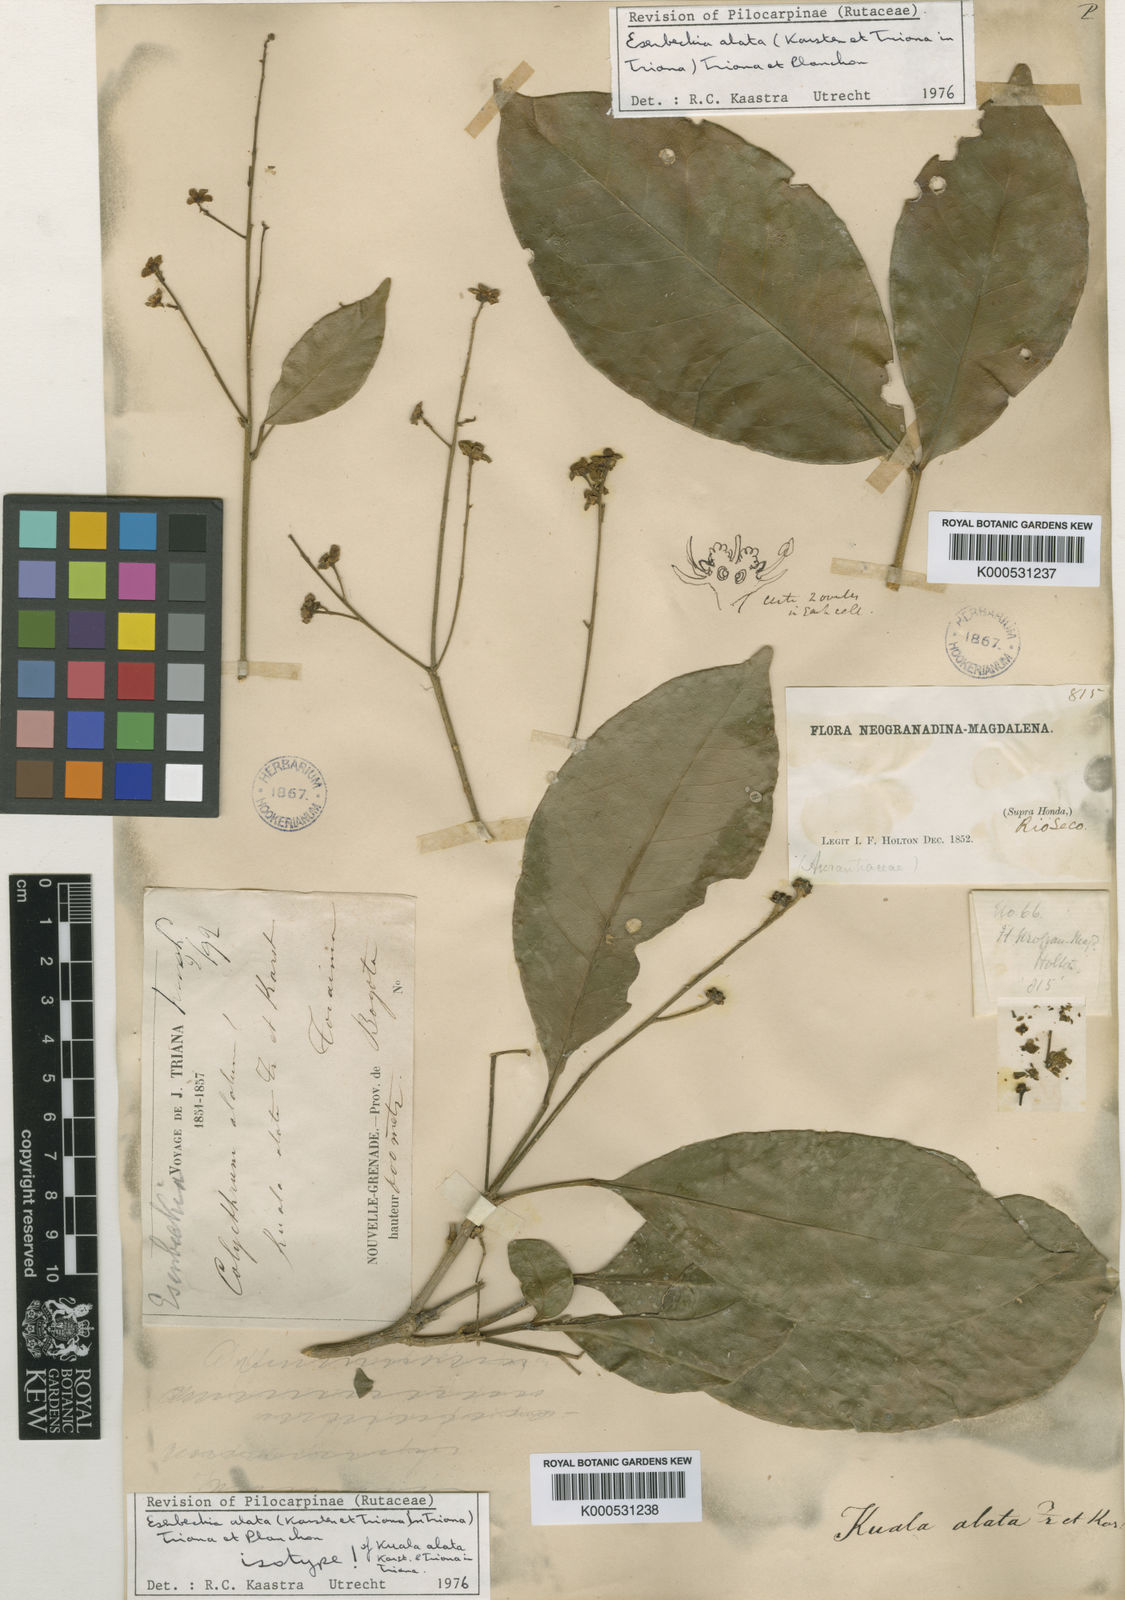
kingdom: Plantae
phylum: Tracheophyta
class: Magnoliopsida
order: Sapindales
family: Rutaceae
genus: Esenbeckia
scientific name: Esenbeckia alata
